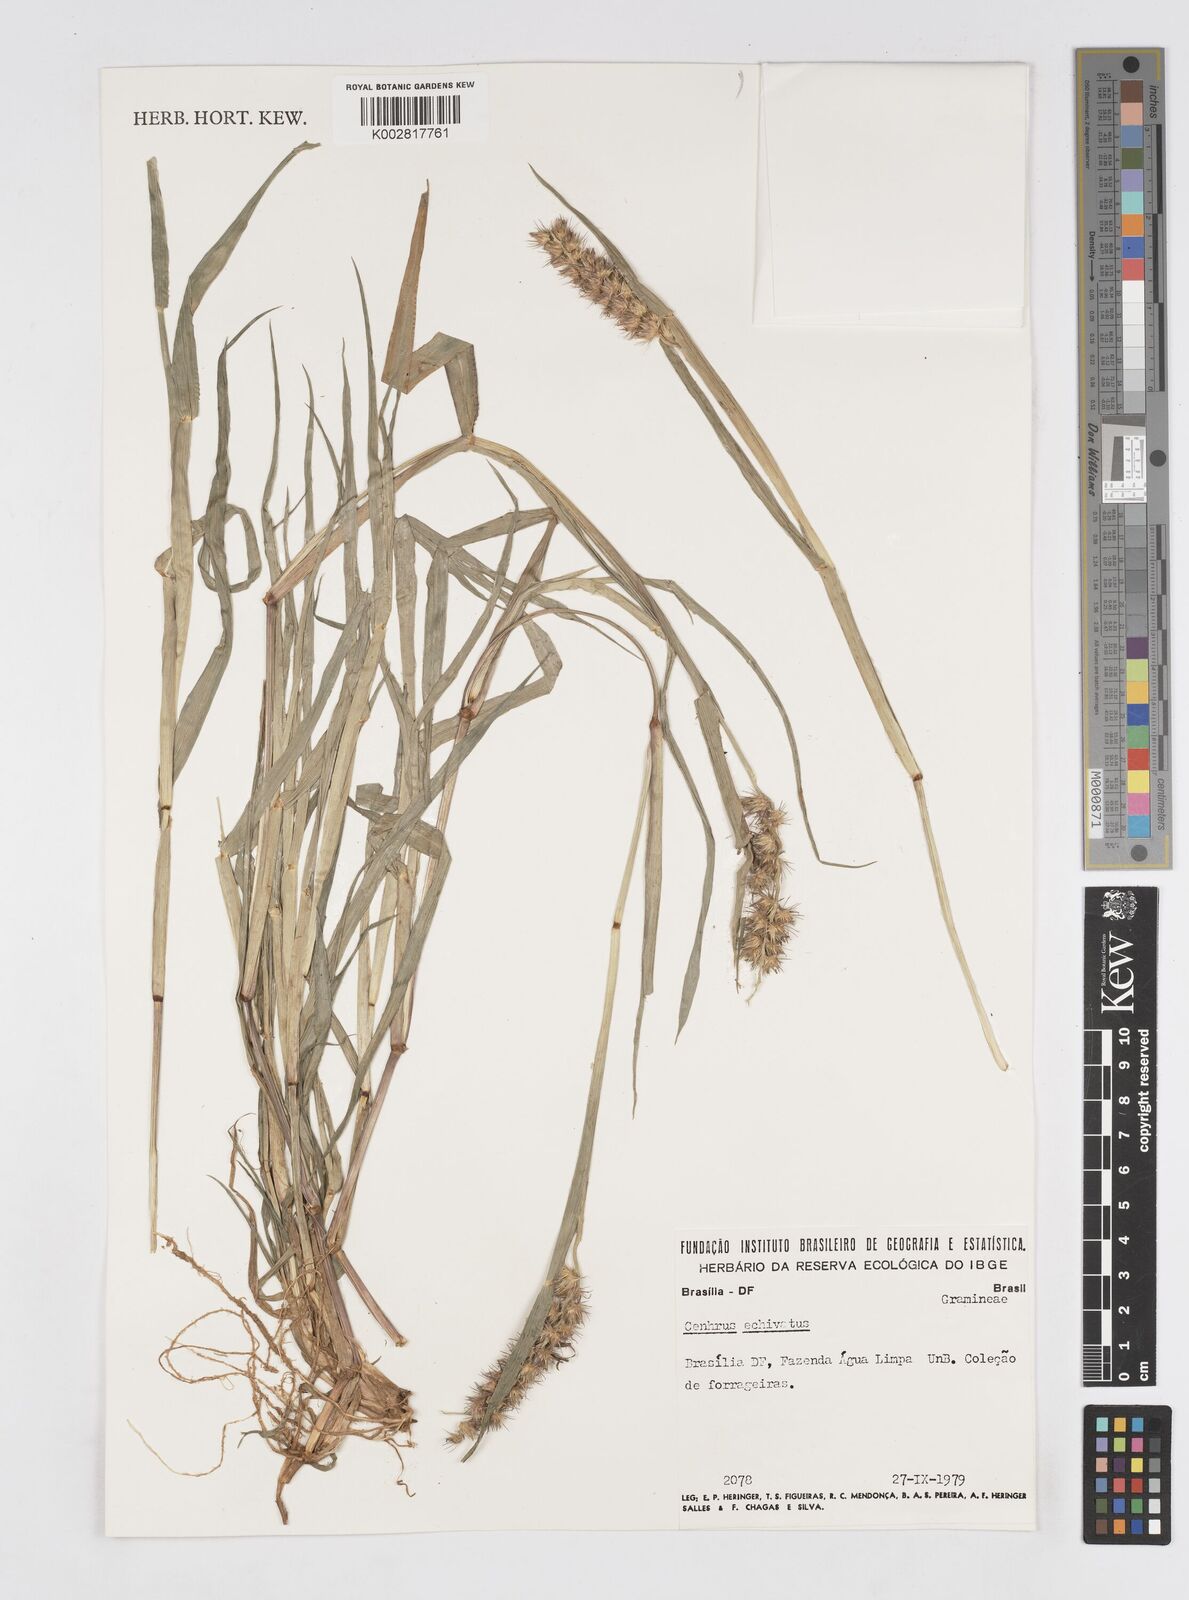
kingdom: Plantae
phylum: Tracheophyta
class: Liliopsida
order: Poales
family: Poaceae
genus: Cenchrus
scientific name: Cenchrus
